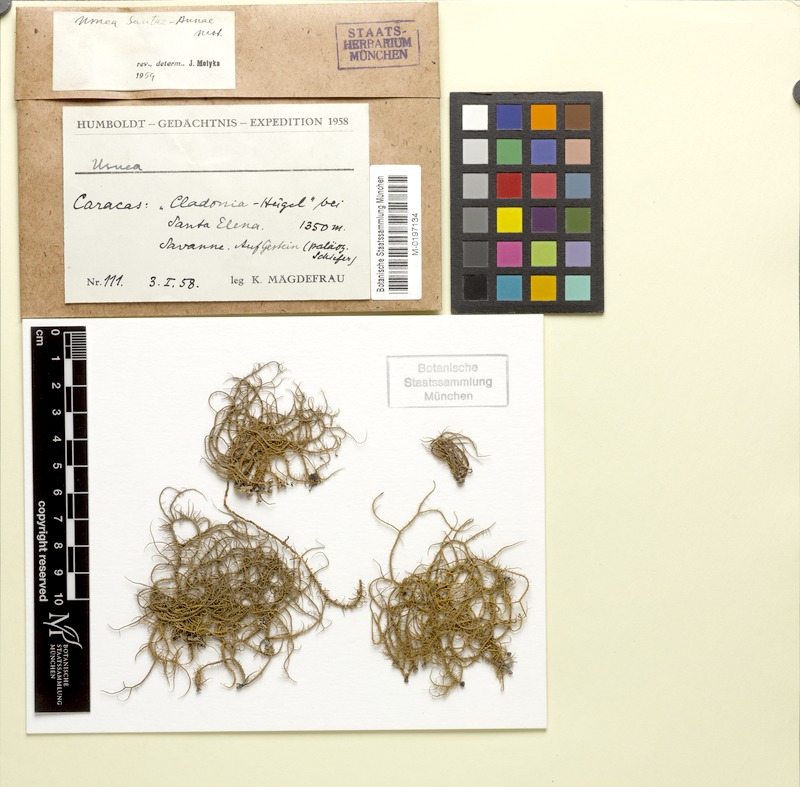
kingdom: Fungi
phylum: Ascomycota
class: Lecanoromycetes
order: Lecanorales
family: Parmeliaceae
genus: Usnea
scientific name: Usnea
